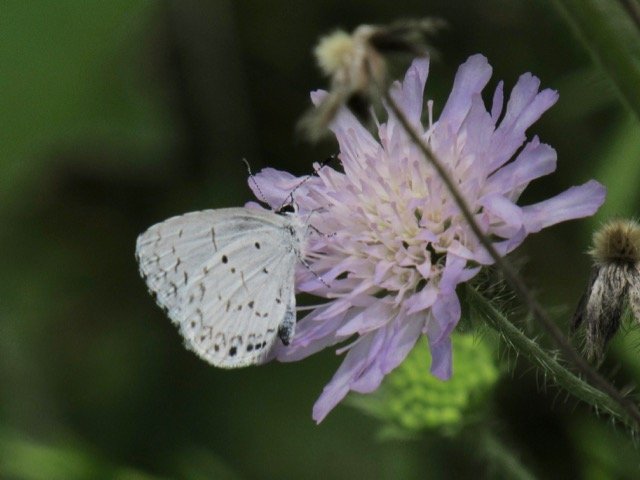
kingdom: Animalia
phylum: Arthropoda
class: Insecta
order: Lepidoptera
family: Lycaenidae
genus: Cyaniris
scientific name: Cyaniris neglecta
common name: Summer Azure
